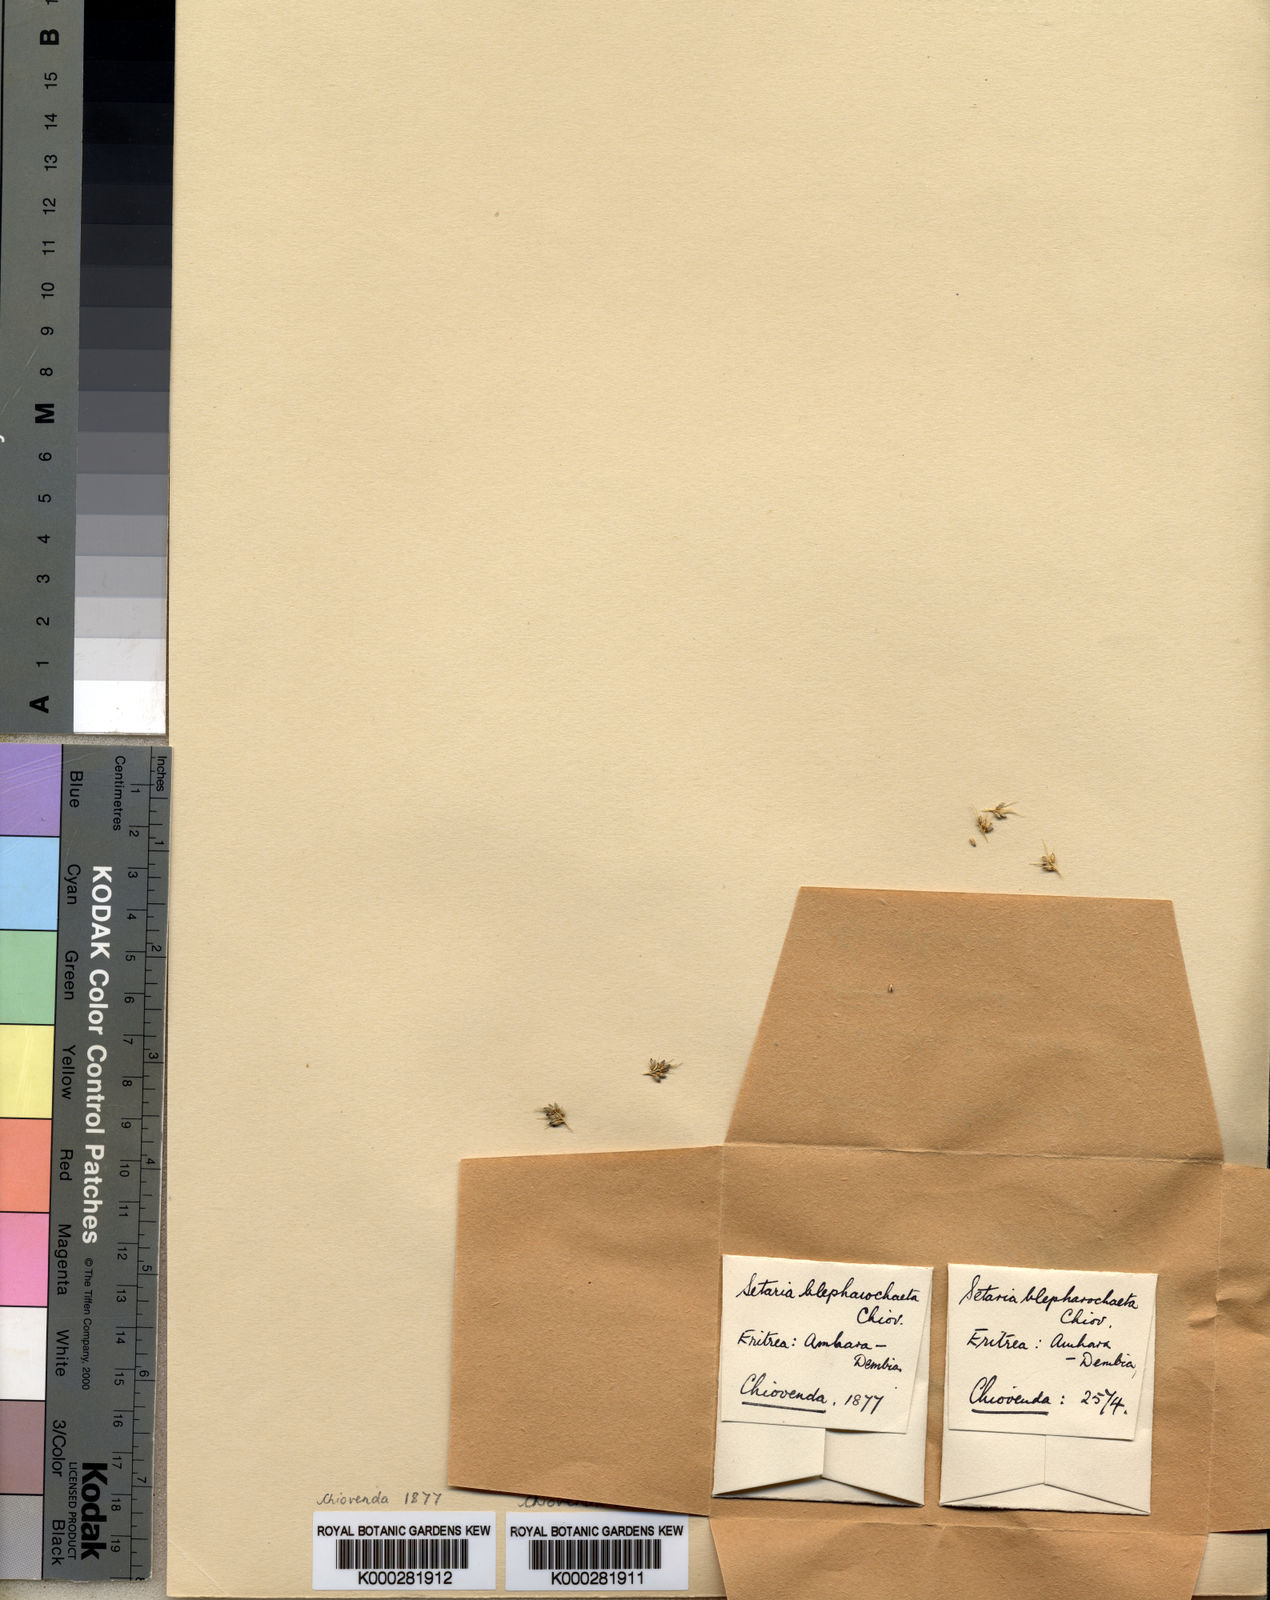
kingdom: Plantae
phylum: Tracheophyta
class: Liliopsida
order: Poales
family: Poaceae
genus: Setaria
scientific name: Setaria
